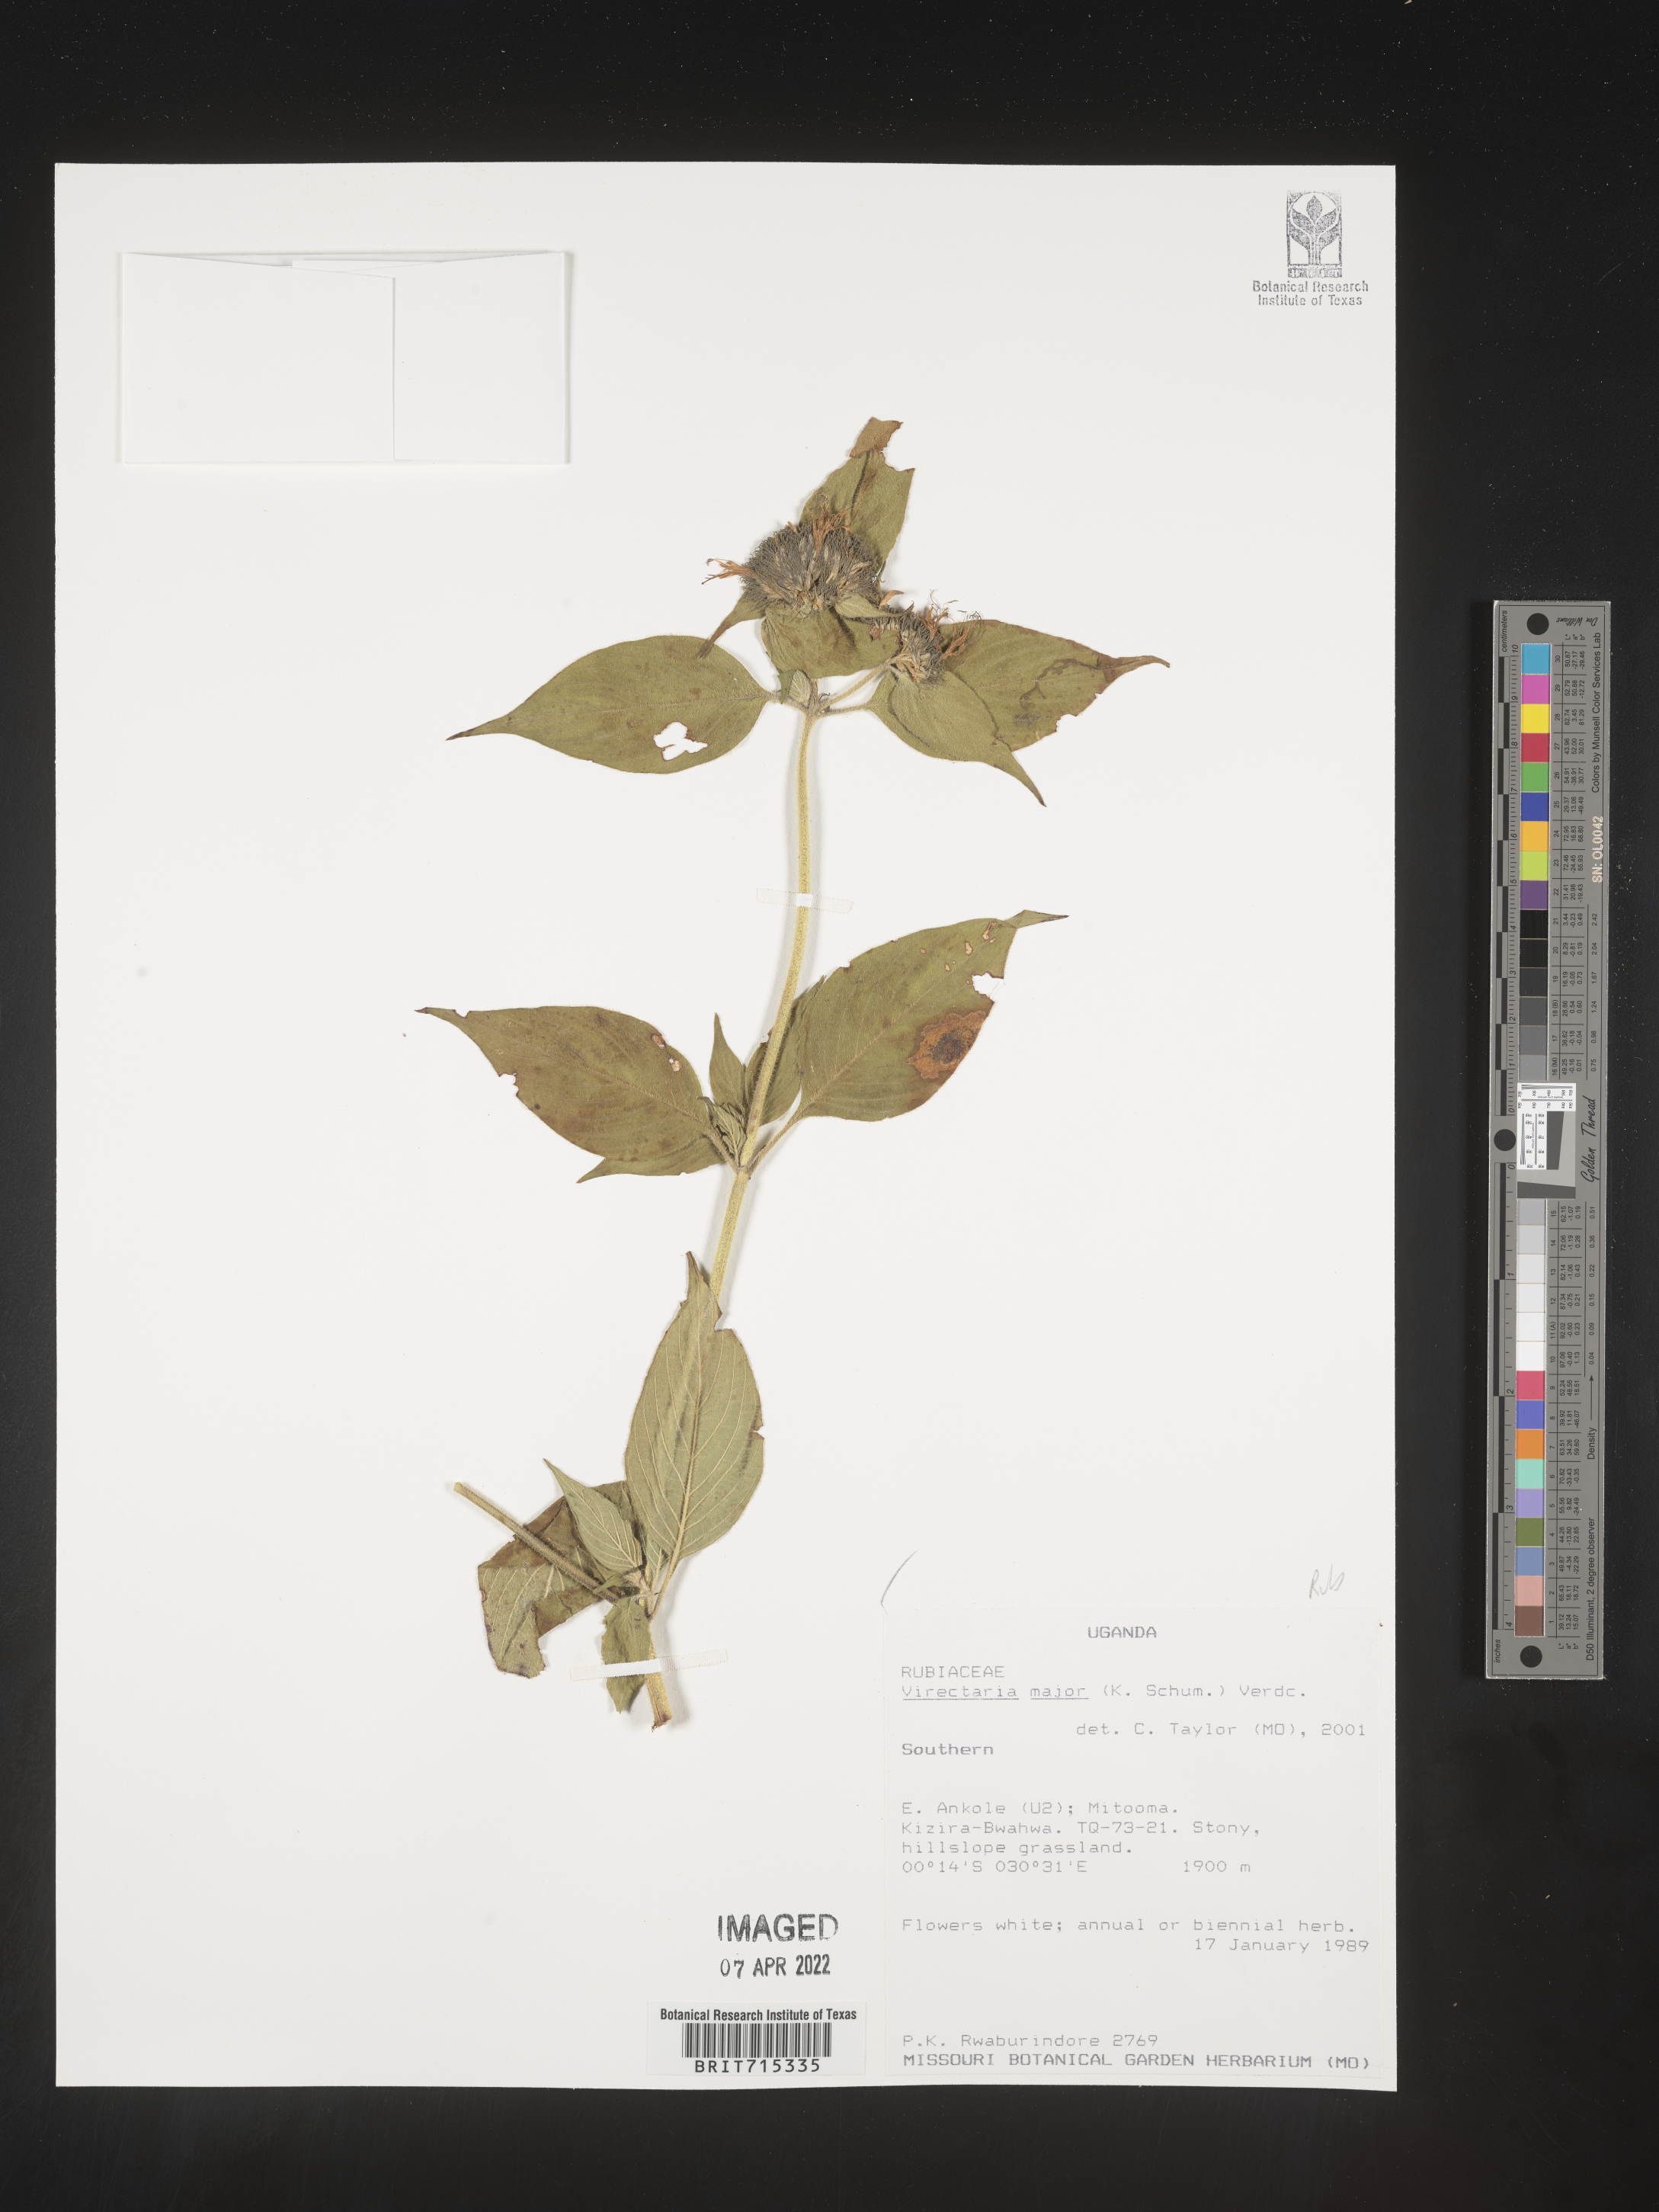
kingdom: Plantae
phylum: Tracheophyta
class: Magnoliopsida
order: Gentianales
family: Rubiaceae
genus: Virectaria
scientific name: Virectaria
